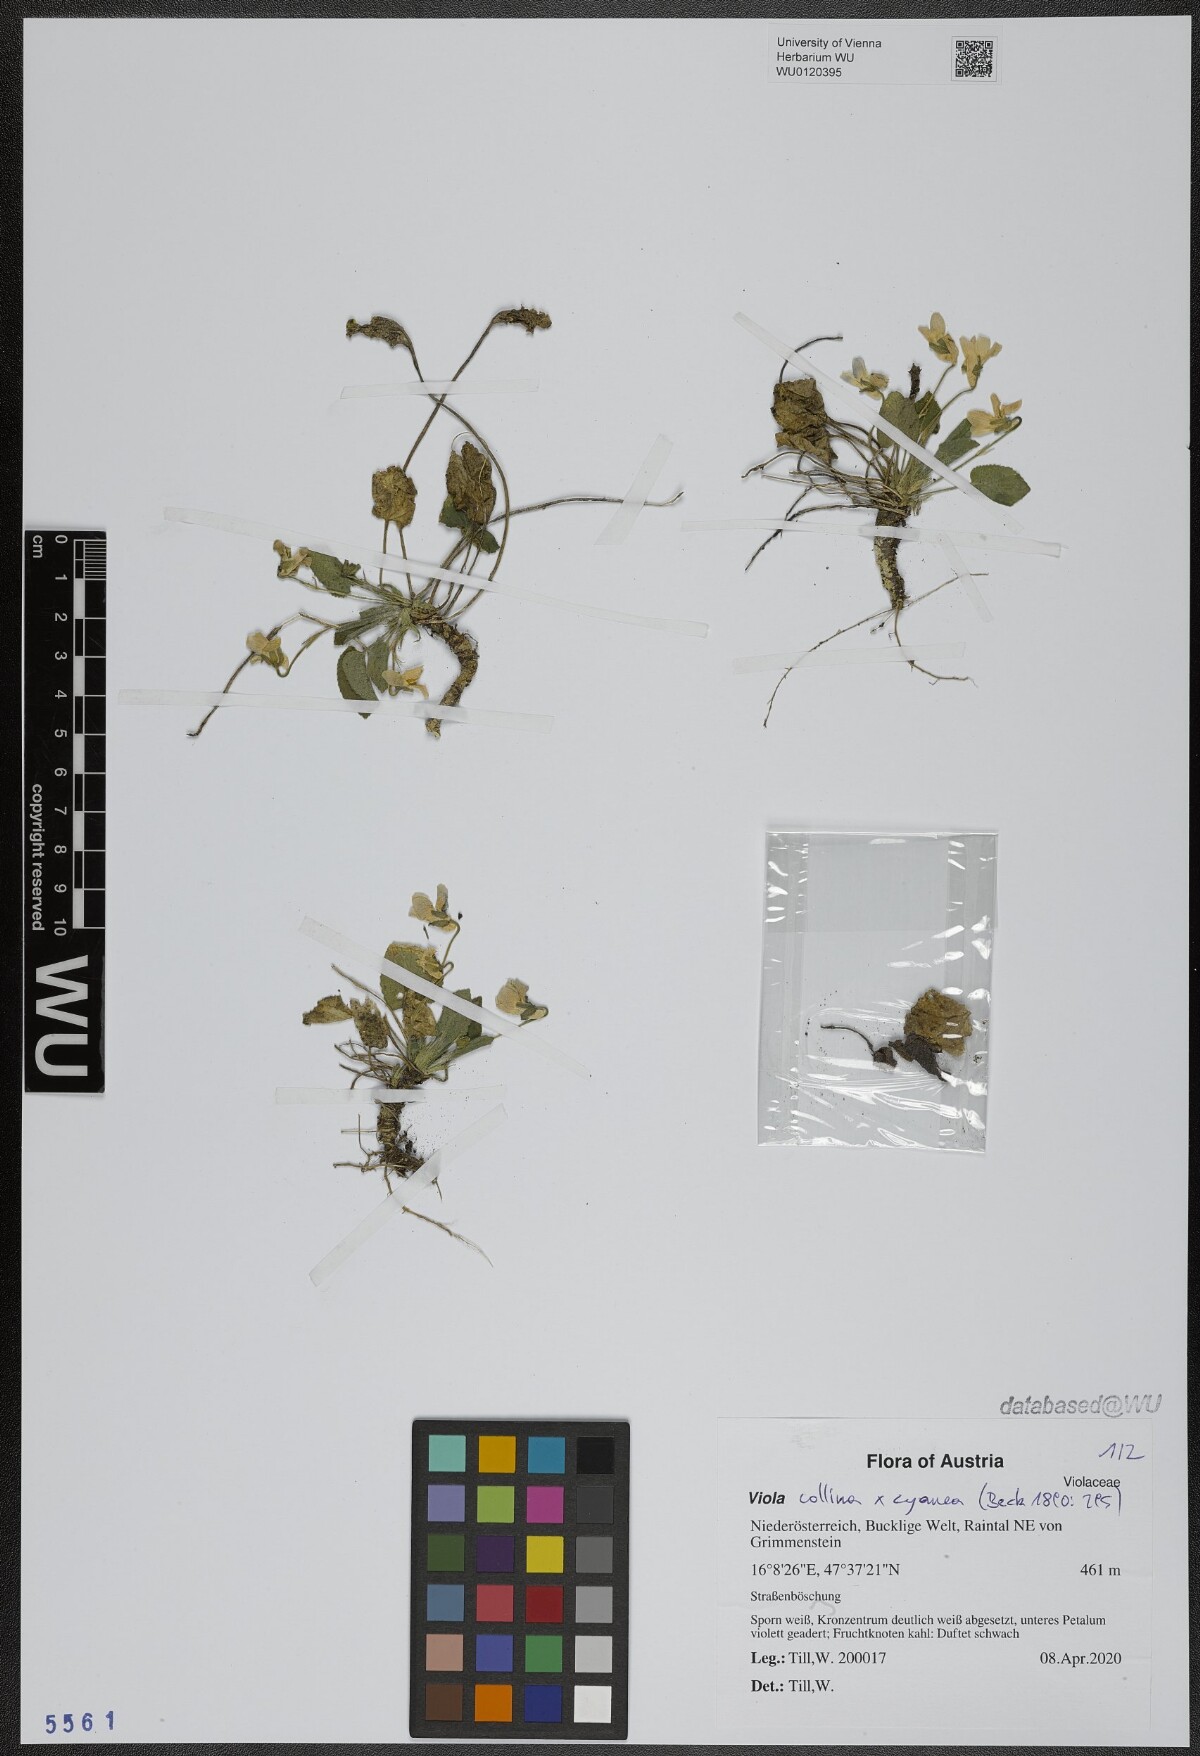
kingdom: Plantae
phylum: Tracheophyta
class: Magnoliopsida
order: Malpighiales
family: Violaceae
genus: Viola
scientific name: Viola
